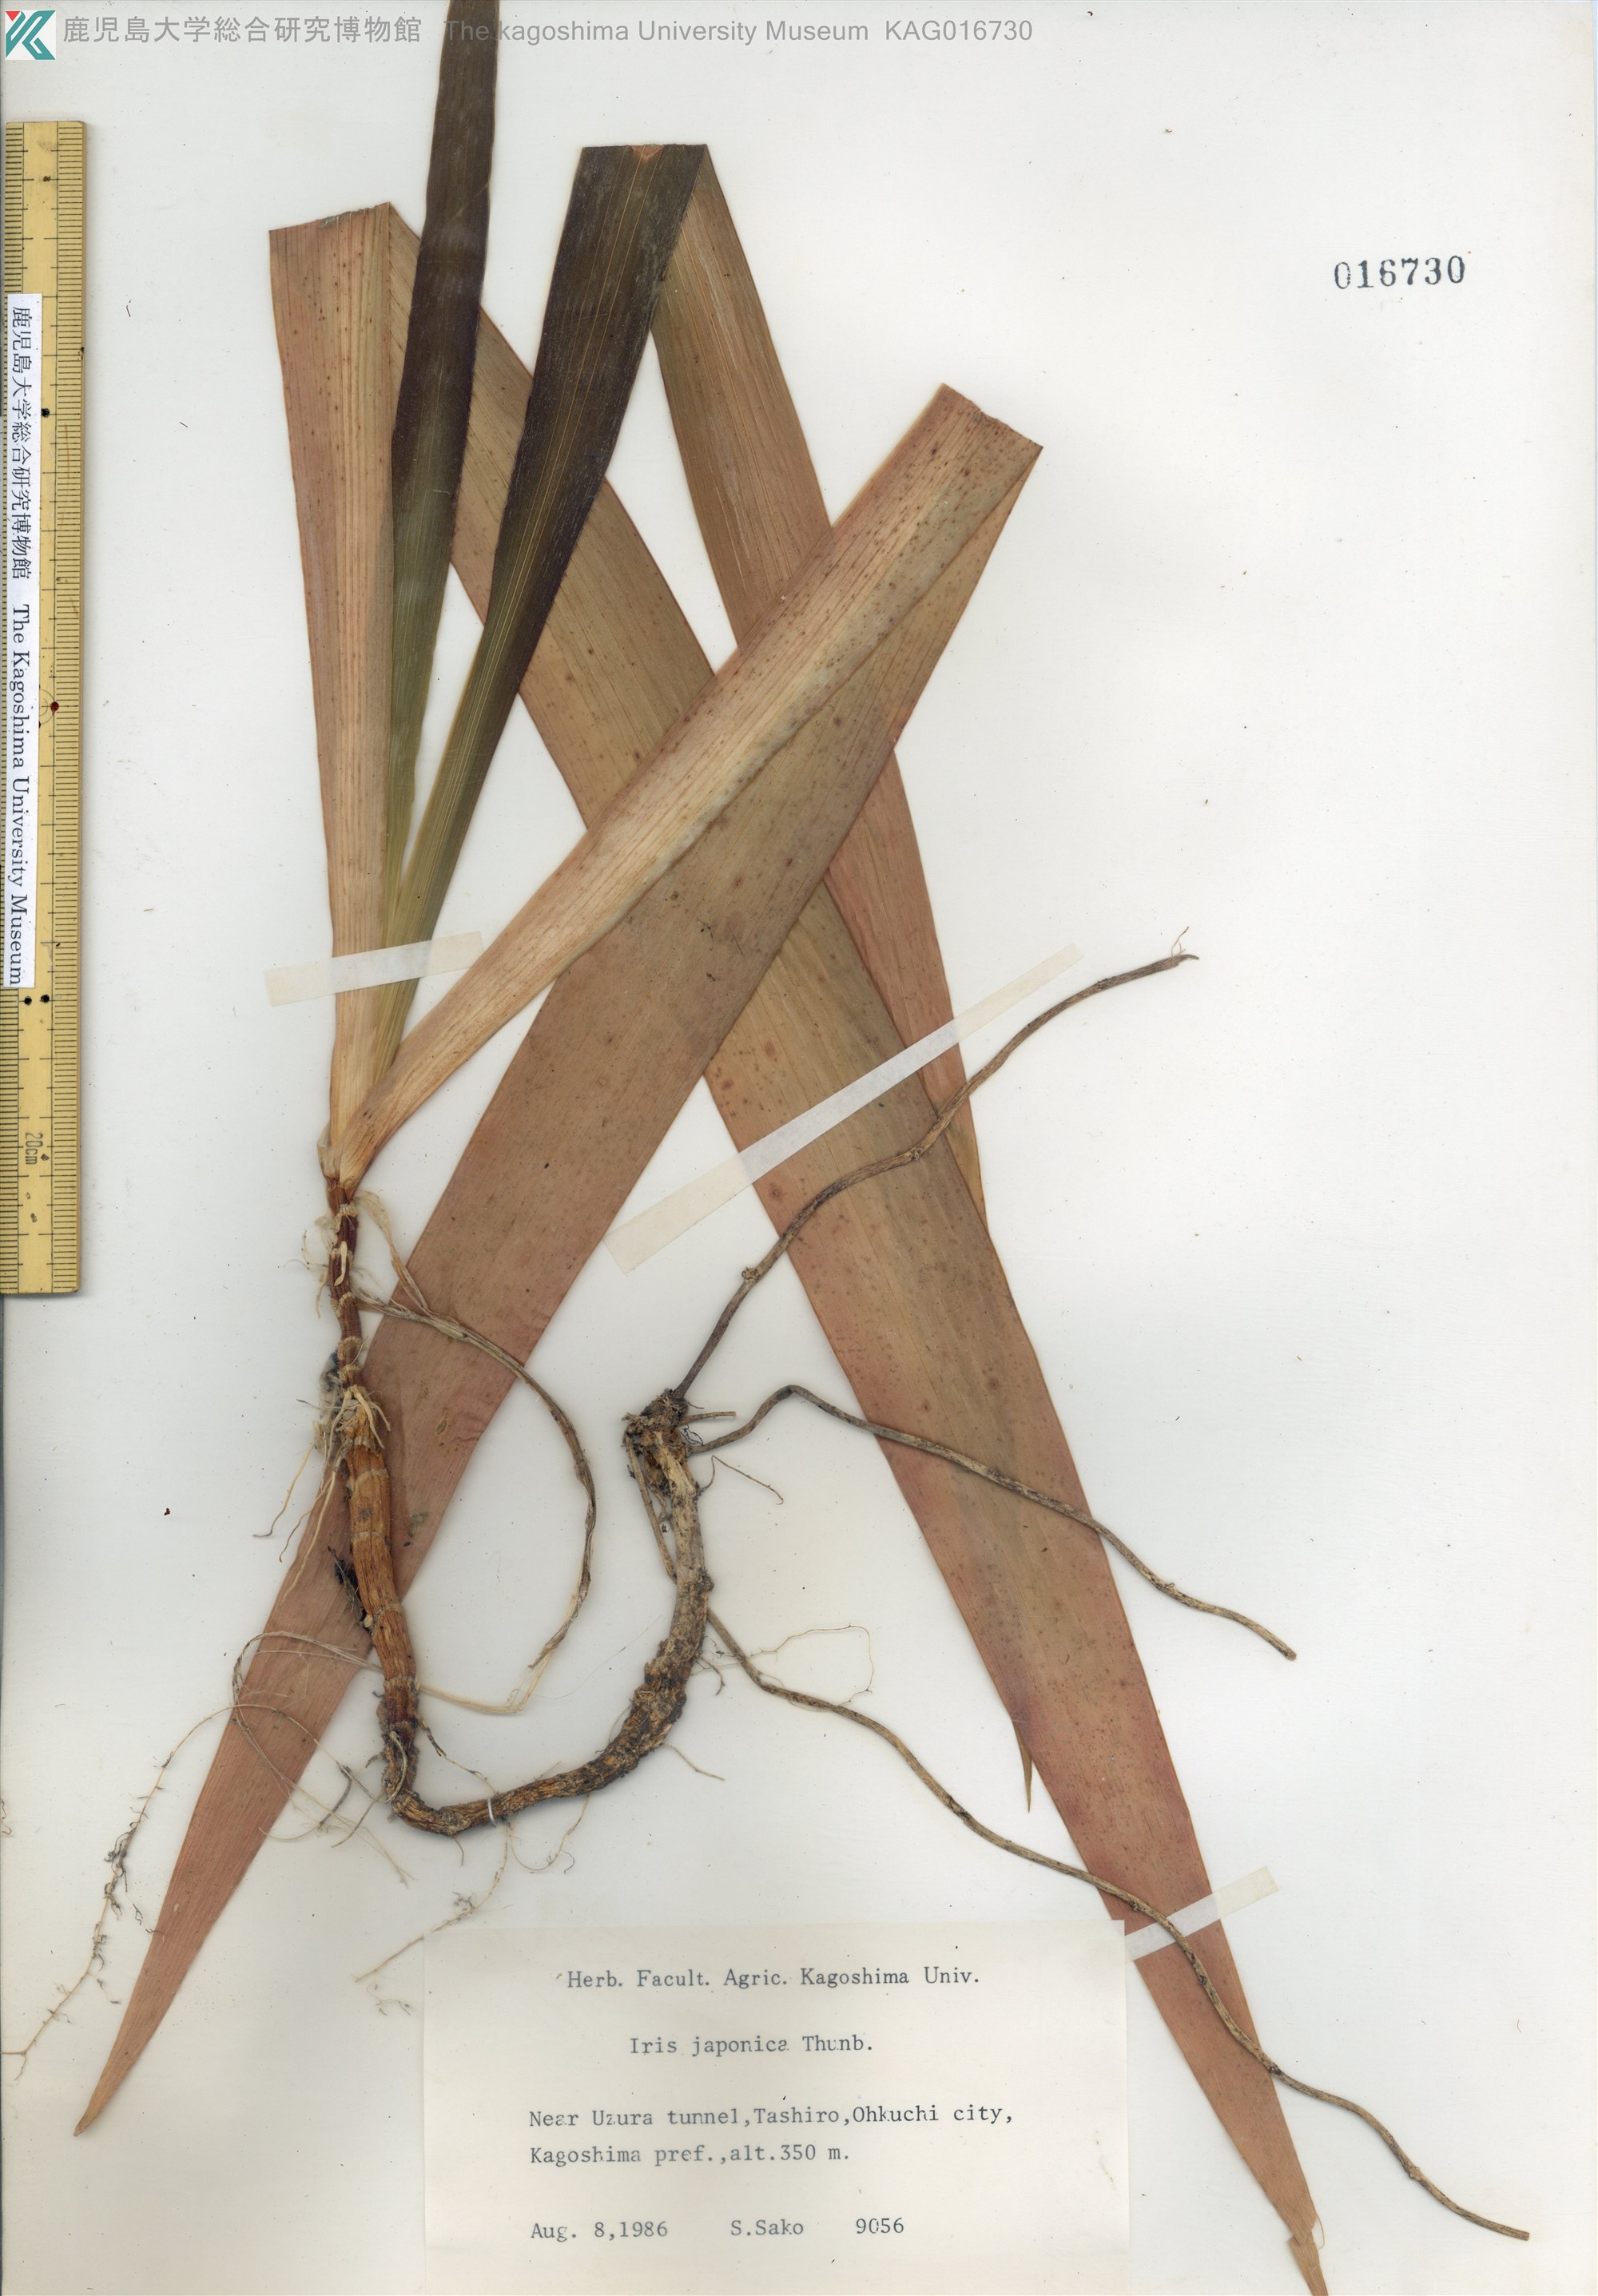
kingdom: Plantae
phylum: Tracheophyta
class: Liliopsida
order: Asparagales
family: Iridaceae
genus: Iris
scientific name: Iris japonica
